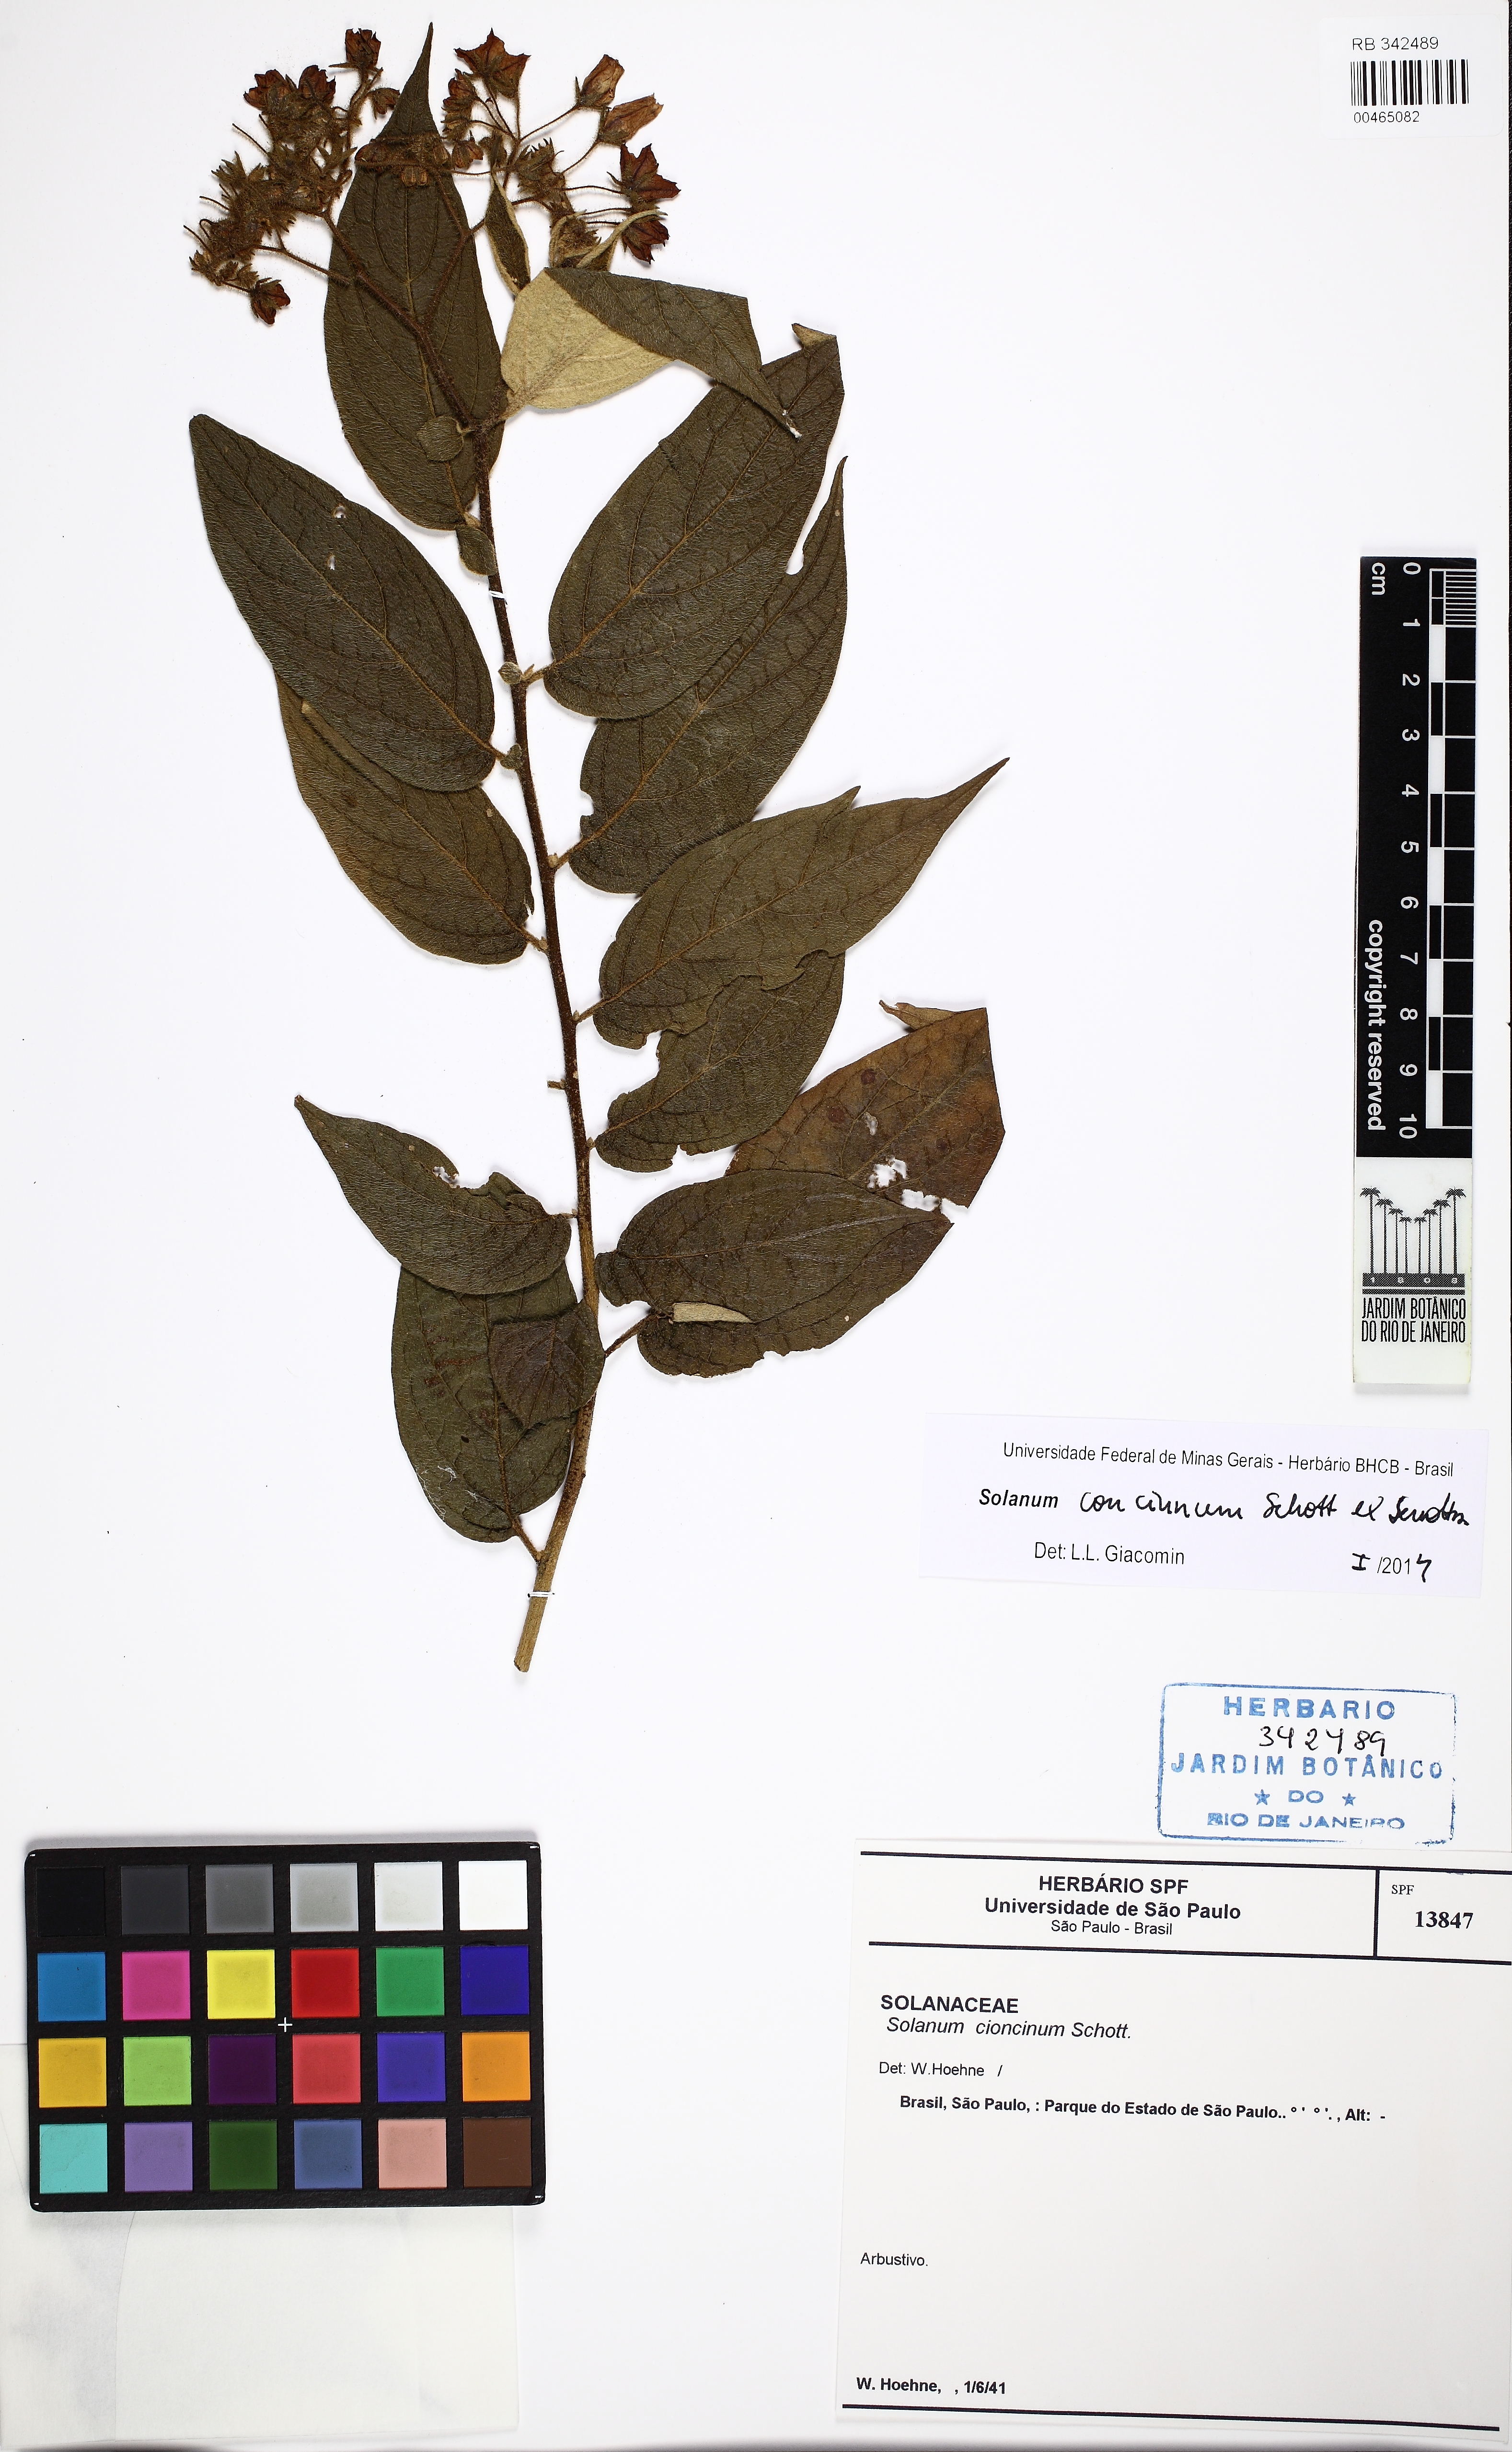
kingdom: Plantae
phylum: Tracheophyta
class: Magnoliopsida
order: Solanales
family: Solanaceae
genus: Solanum
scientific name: Solanum concinnum
